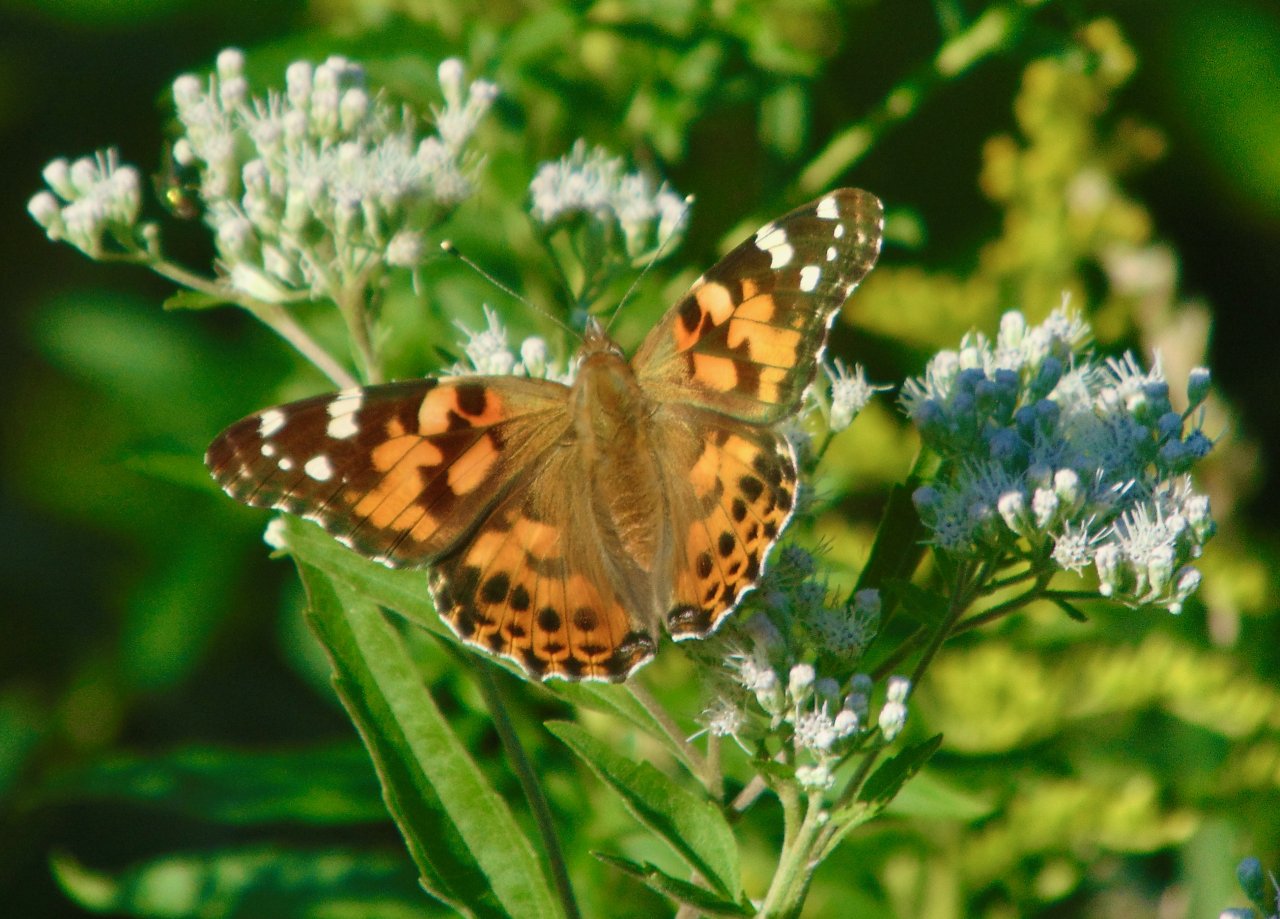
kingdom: Animalia
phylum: Arthropoda
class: Insecta
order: Lepidoptera
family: Nymphalidae
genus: Vanessa
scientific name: Vanessa cardui
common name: Painted Lady
